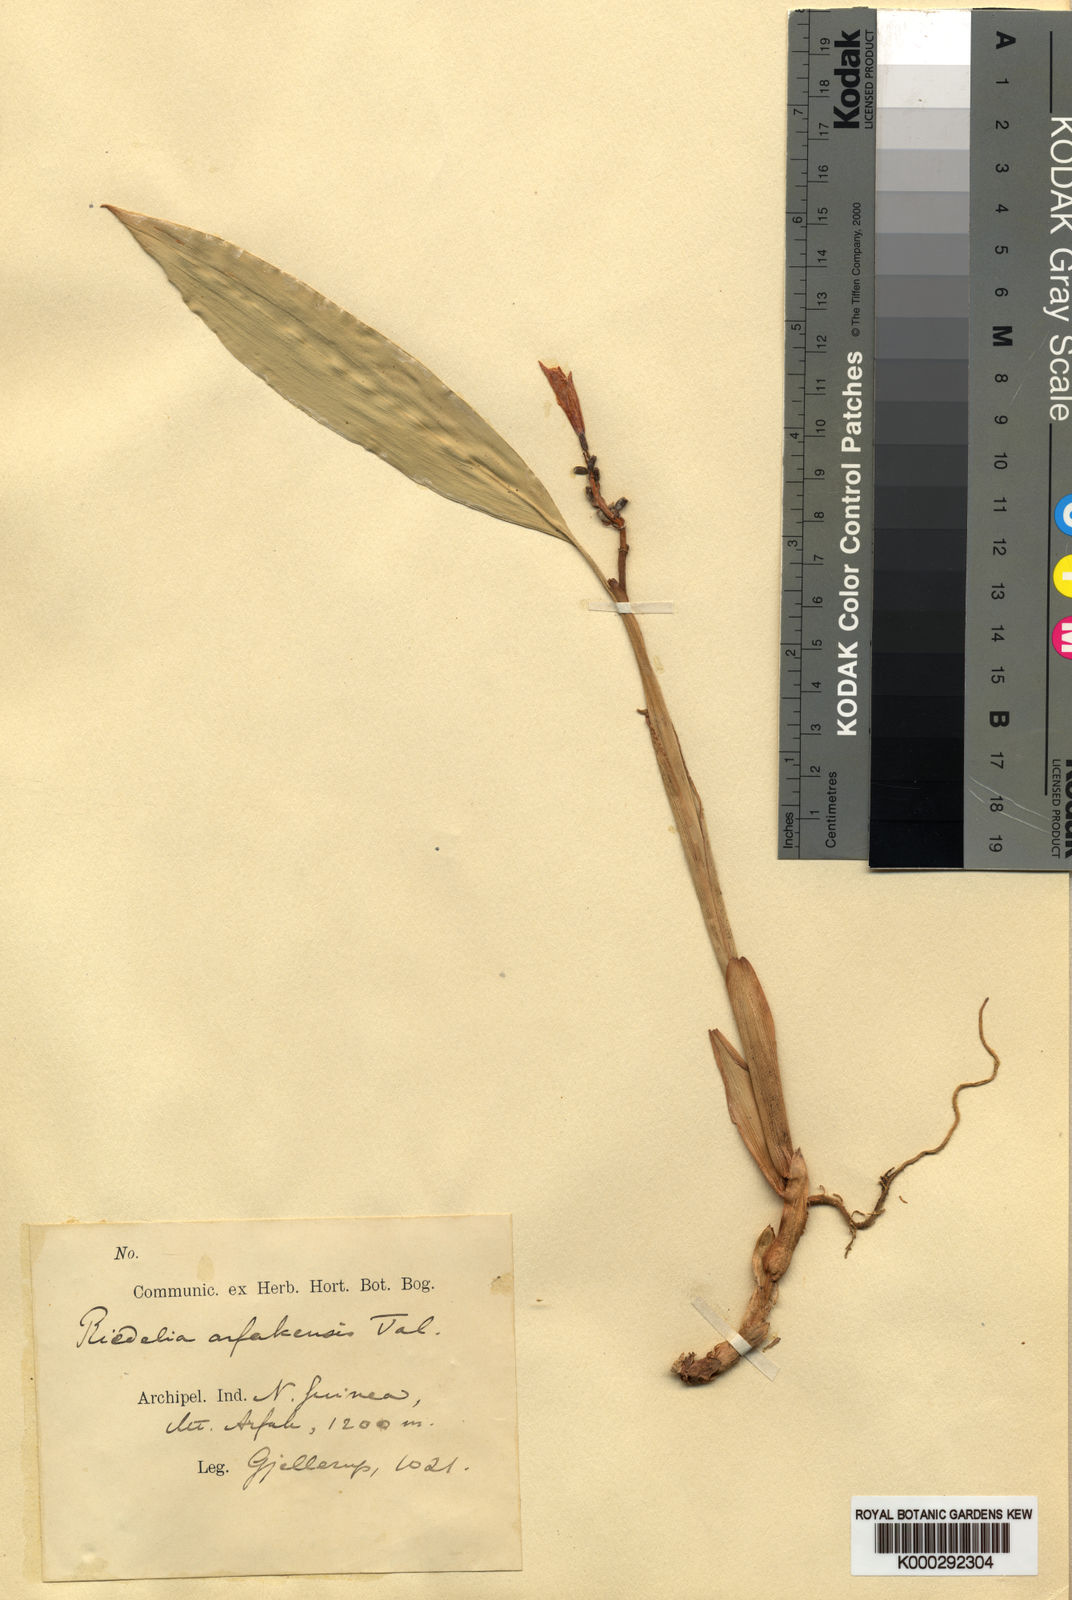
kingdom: Plantae
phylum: Tracheophyta
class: Liliopsida
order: Zingiberales
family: Zingiberaceae
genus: Riedelia
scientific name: Riedelia arfakensis
